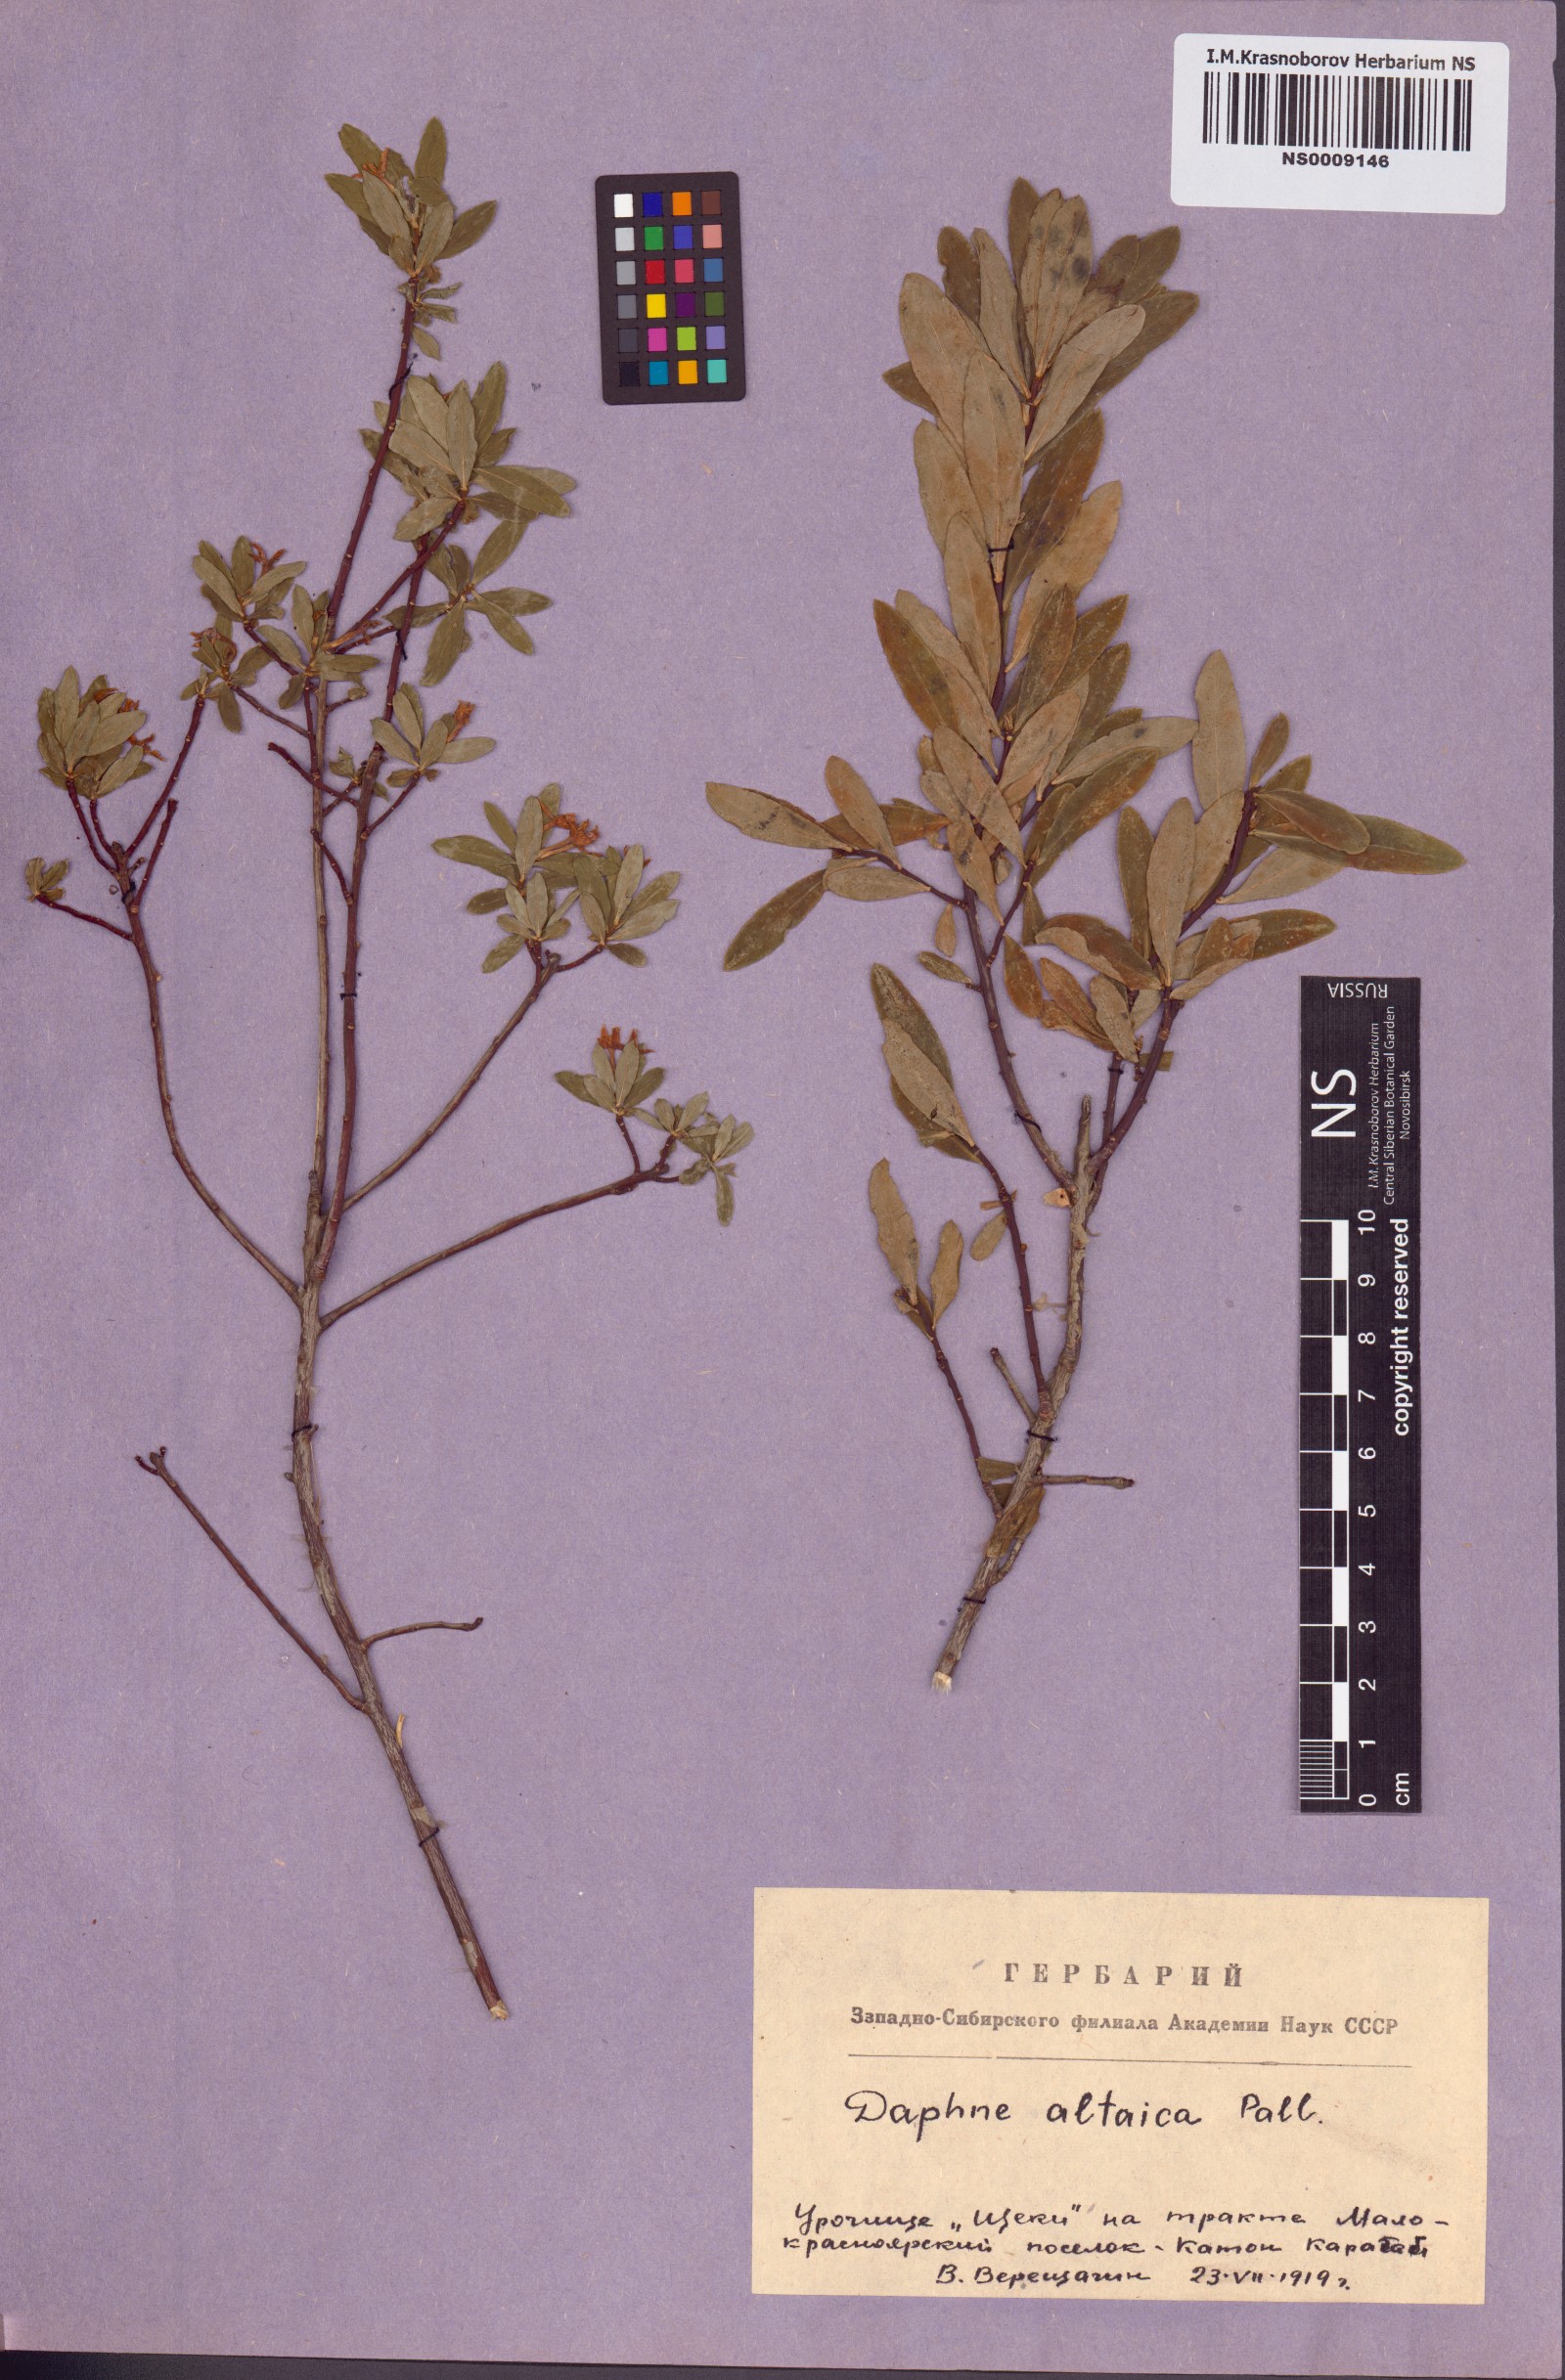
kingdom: Plantae
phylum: Tracheophyta
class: Magnoliopsida
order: Malvales
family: Thymelaeaceae
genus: Daphne
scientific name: Daphne altaica
